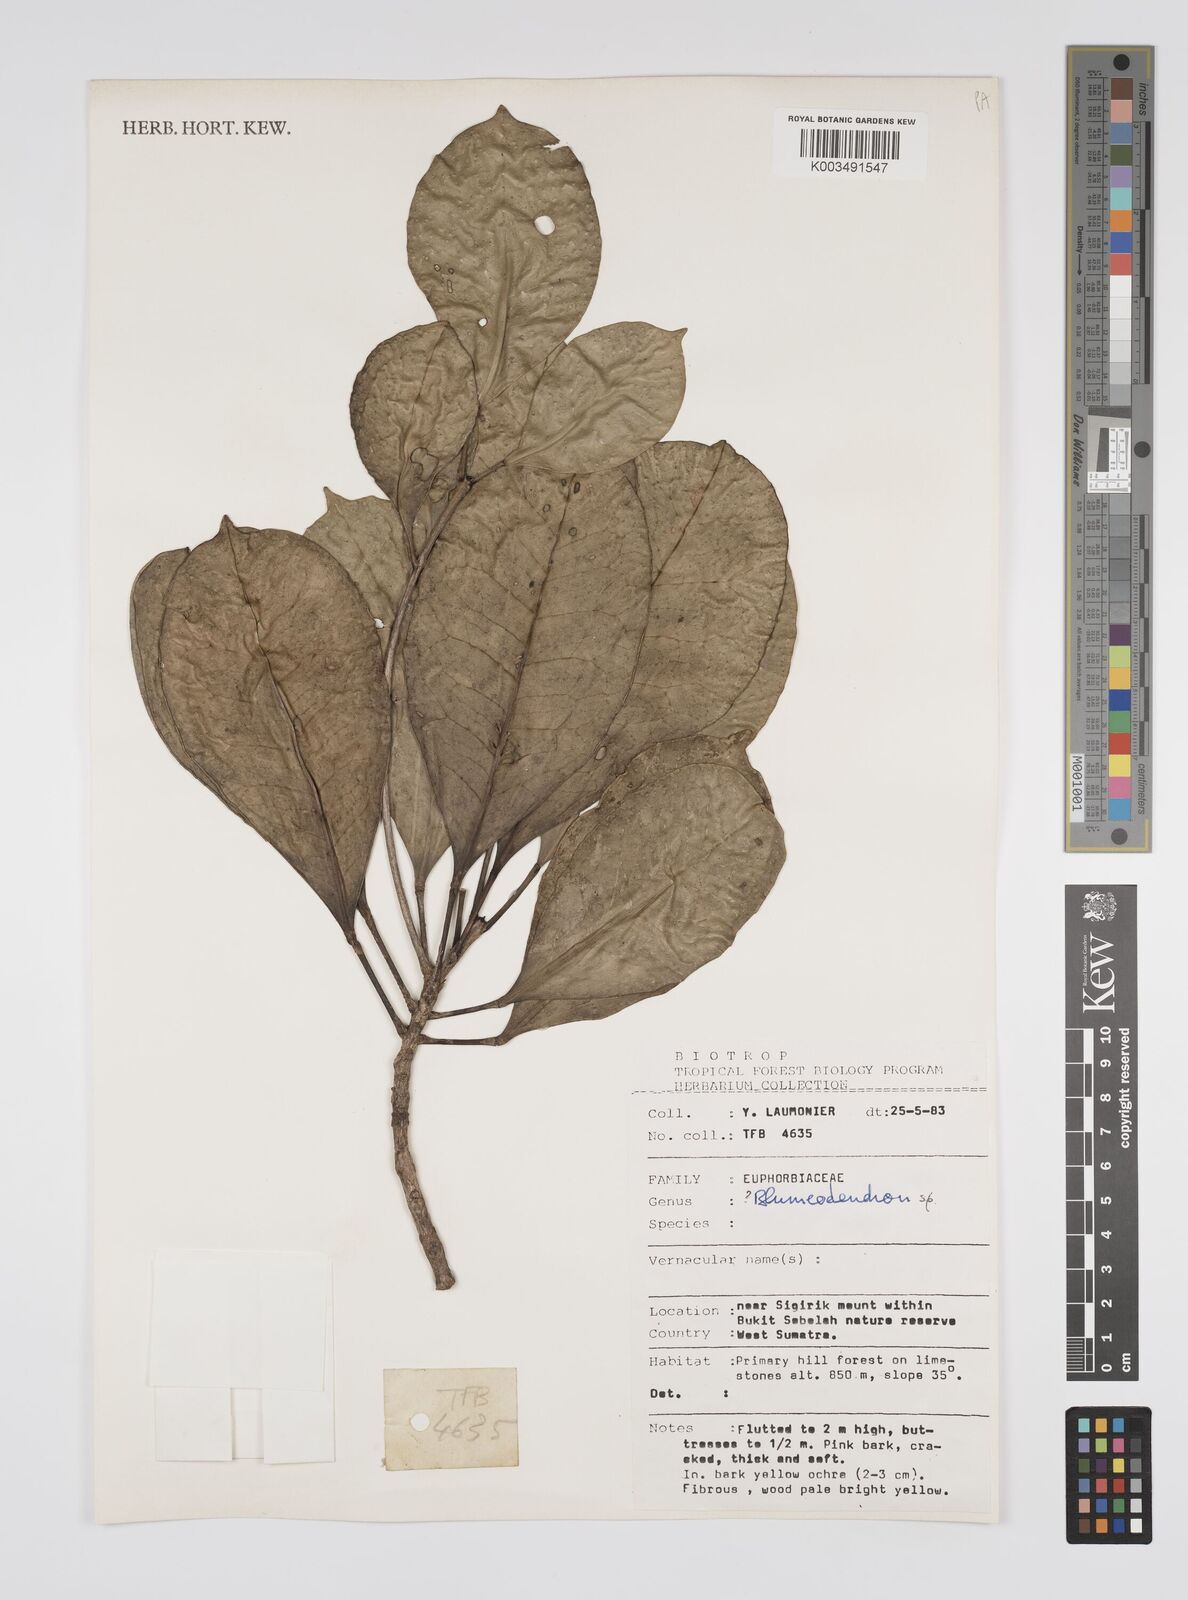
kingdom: Plantae
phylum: Tracheophyta
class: Magnoliopsida
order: Malpighiales
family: Euphorbiaceae
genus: Blumeodendron
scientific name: Blumeodendron
